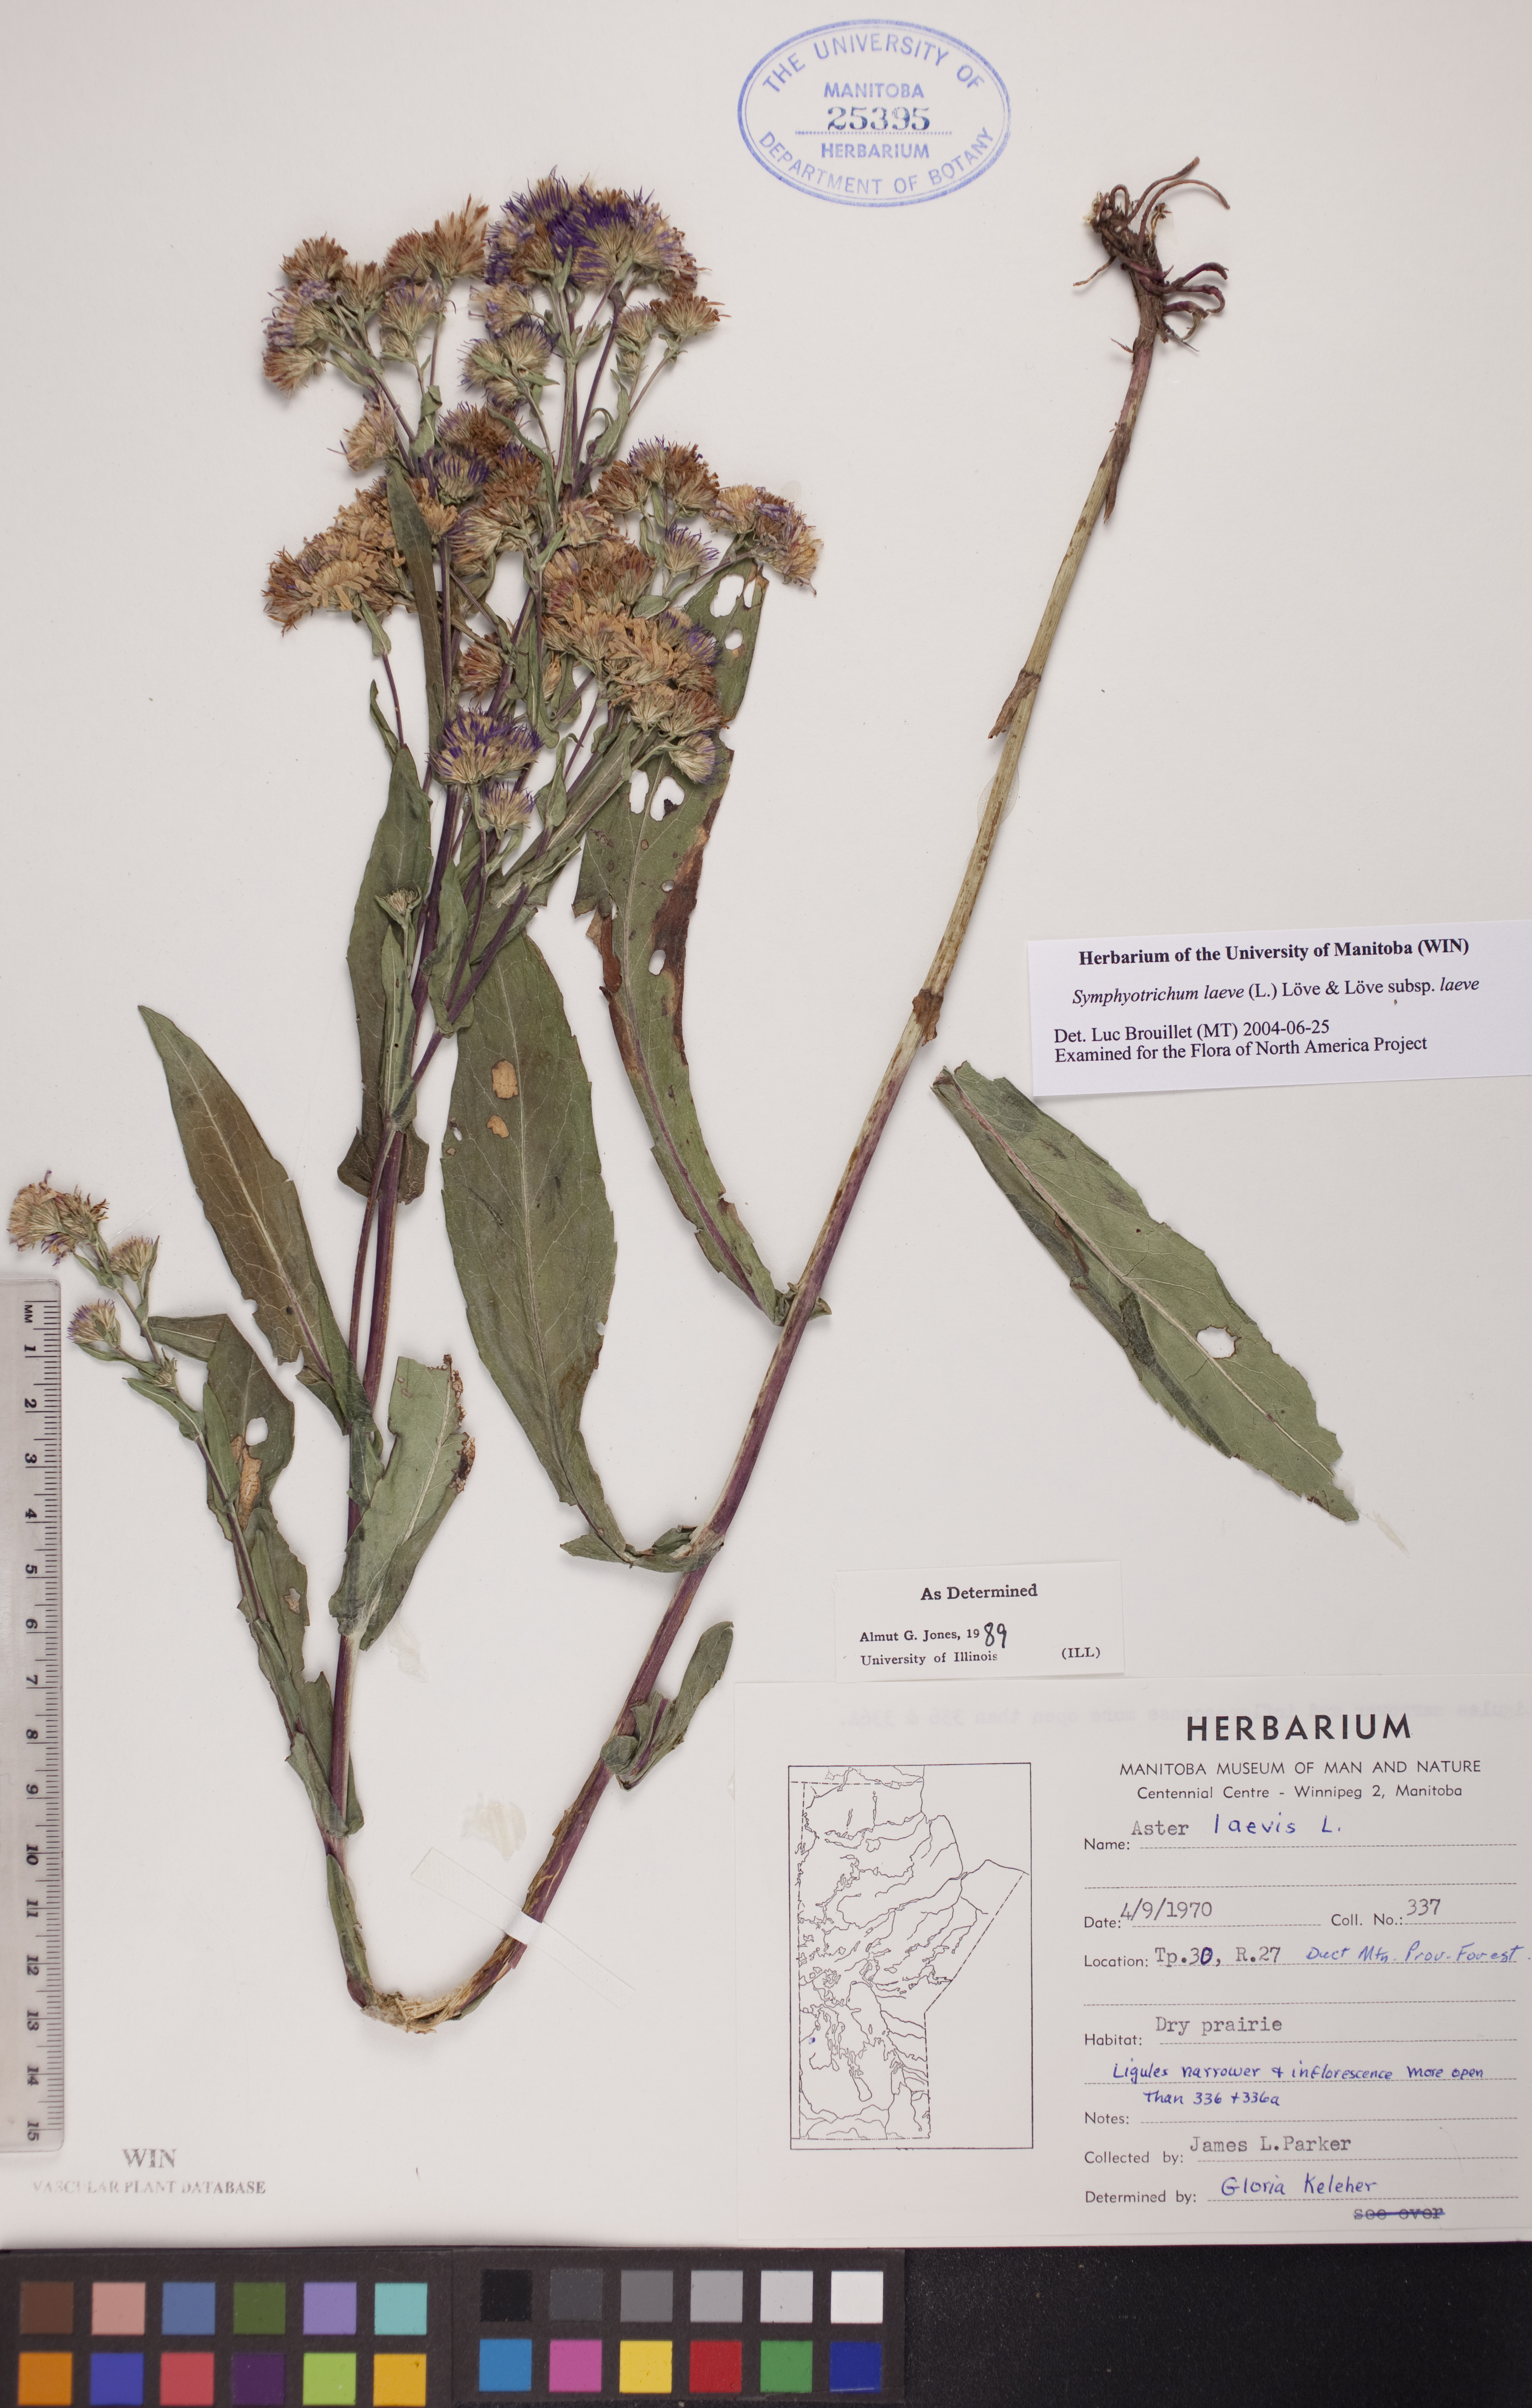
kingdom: Plantae
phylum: Tracheophyta
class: Magnoliopsida
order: Asterales
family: Asteraceae
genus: Symphyotrichum
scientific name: Symphyotrichum laeve
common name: Glaucous aster
